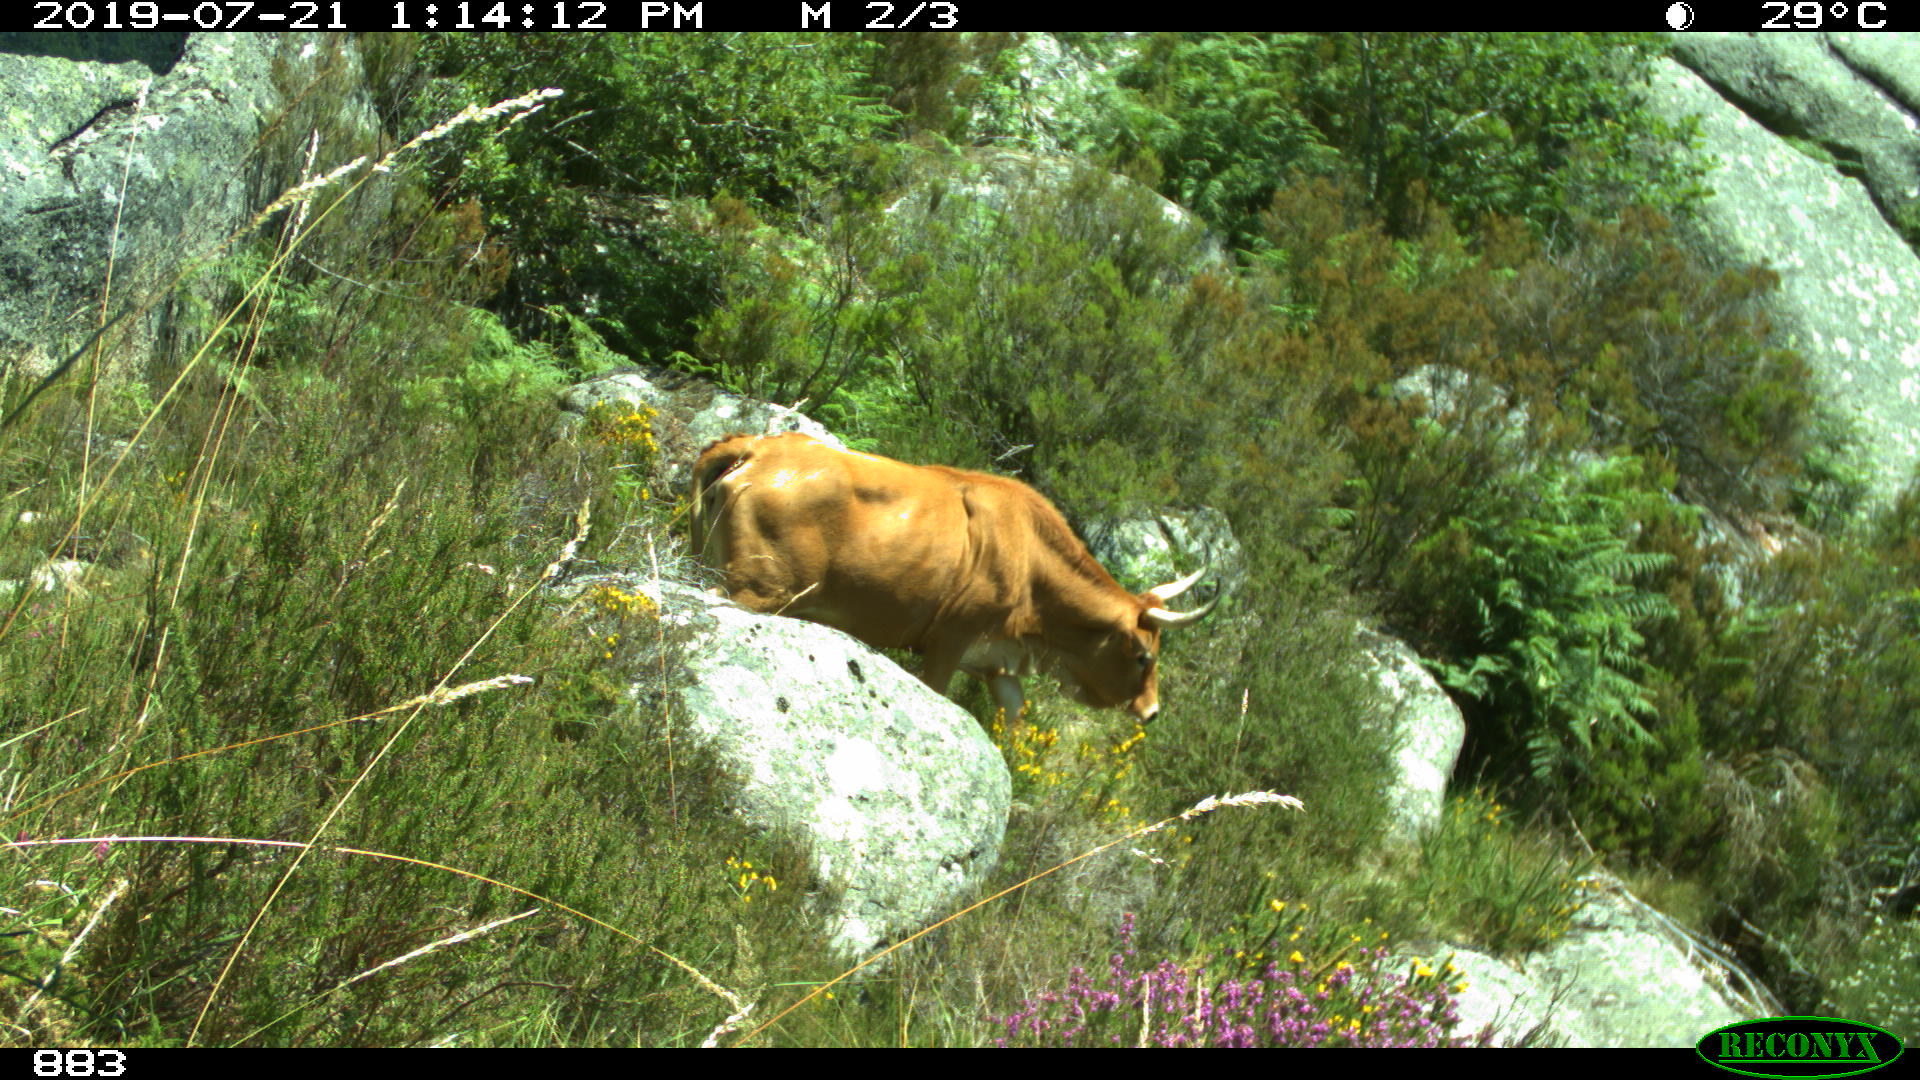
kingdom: Animalia
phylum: Chordata
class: Mammalia
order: Artiodactyla
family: Bovidae
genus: Bos
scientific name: Bos taurus
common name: Domesticated cattle
